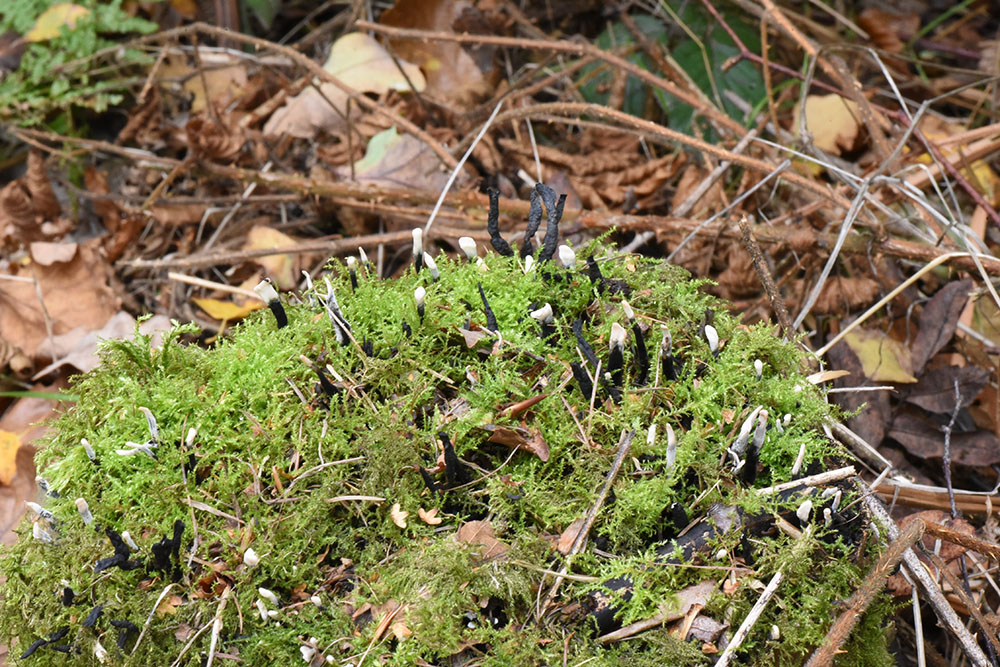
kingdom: Fungi
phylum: Ascomycota
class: Sordariomycetes
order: Xylariales
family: Xylariaceae
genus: Xylaria
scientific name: Xylaria hypoxylon
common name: Candle-snuff fungus
